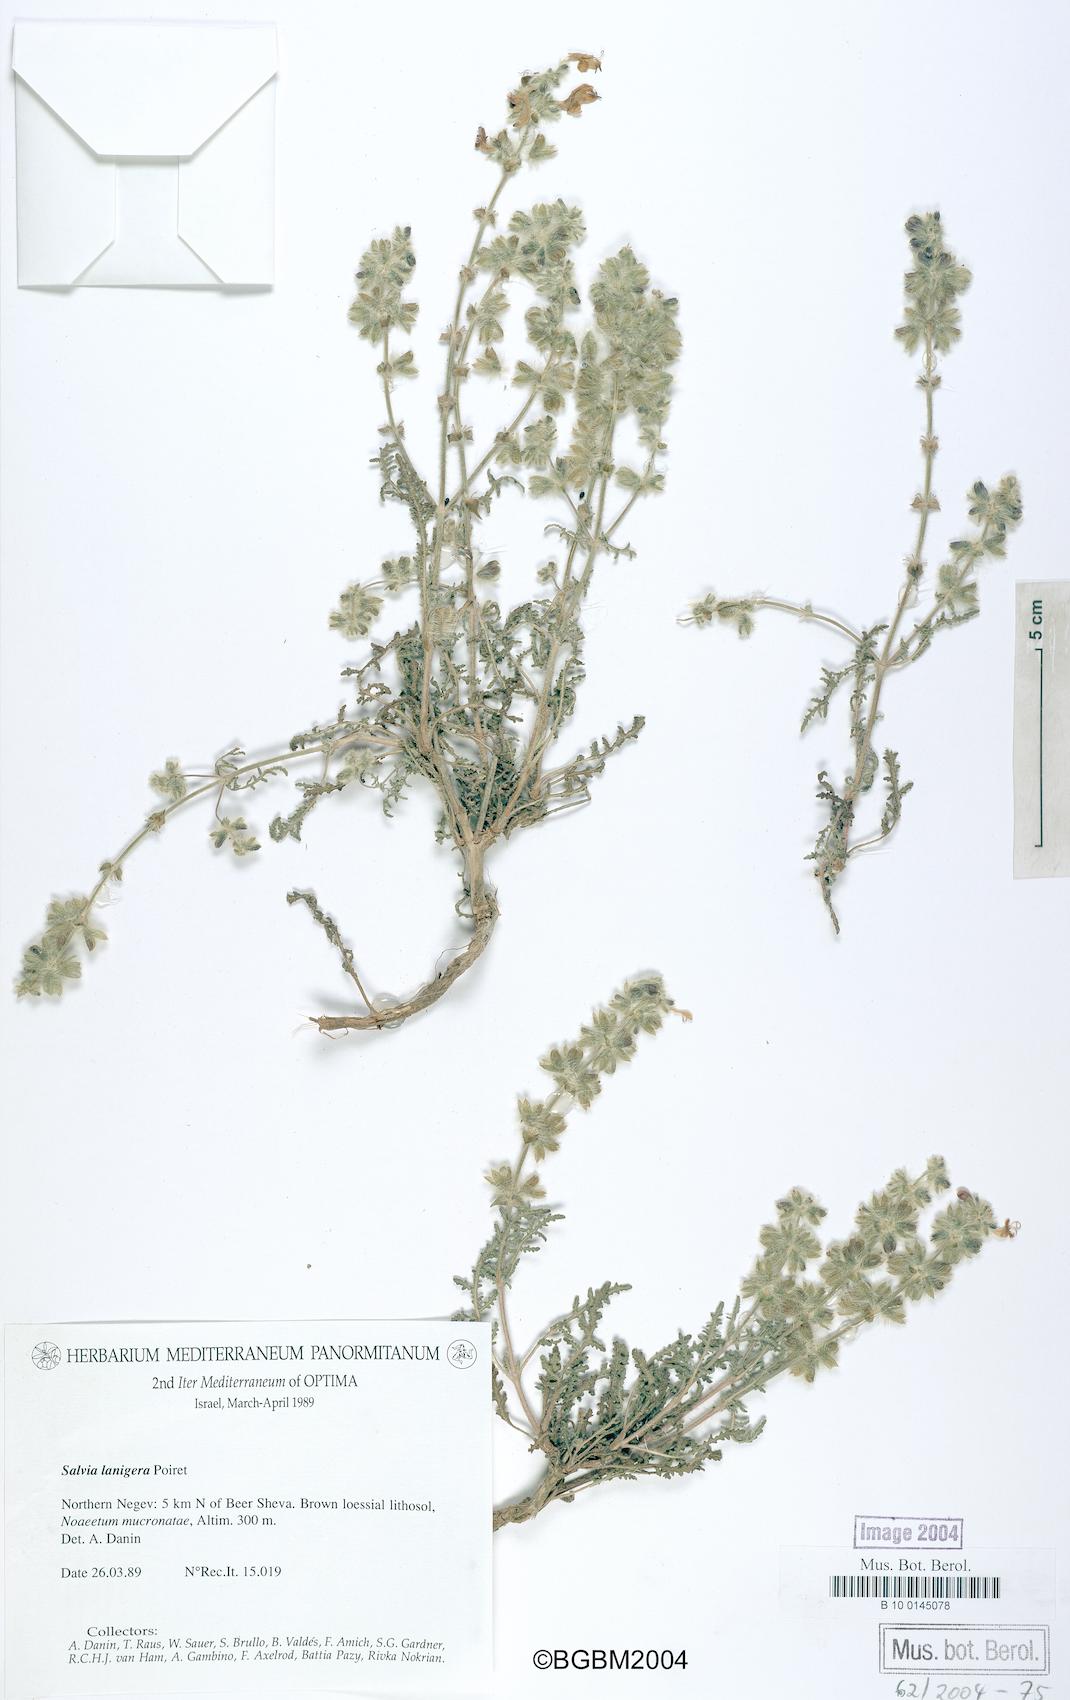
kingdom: Plantae
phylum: Tracheophyta
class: Magnoliopsida
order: Lamiales
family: Lamiaceae
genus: Salvia
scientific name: Salvia lanigera
